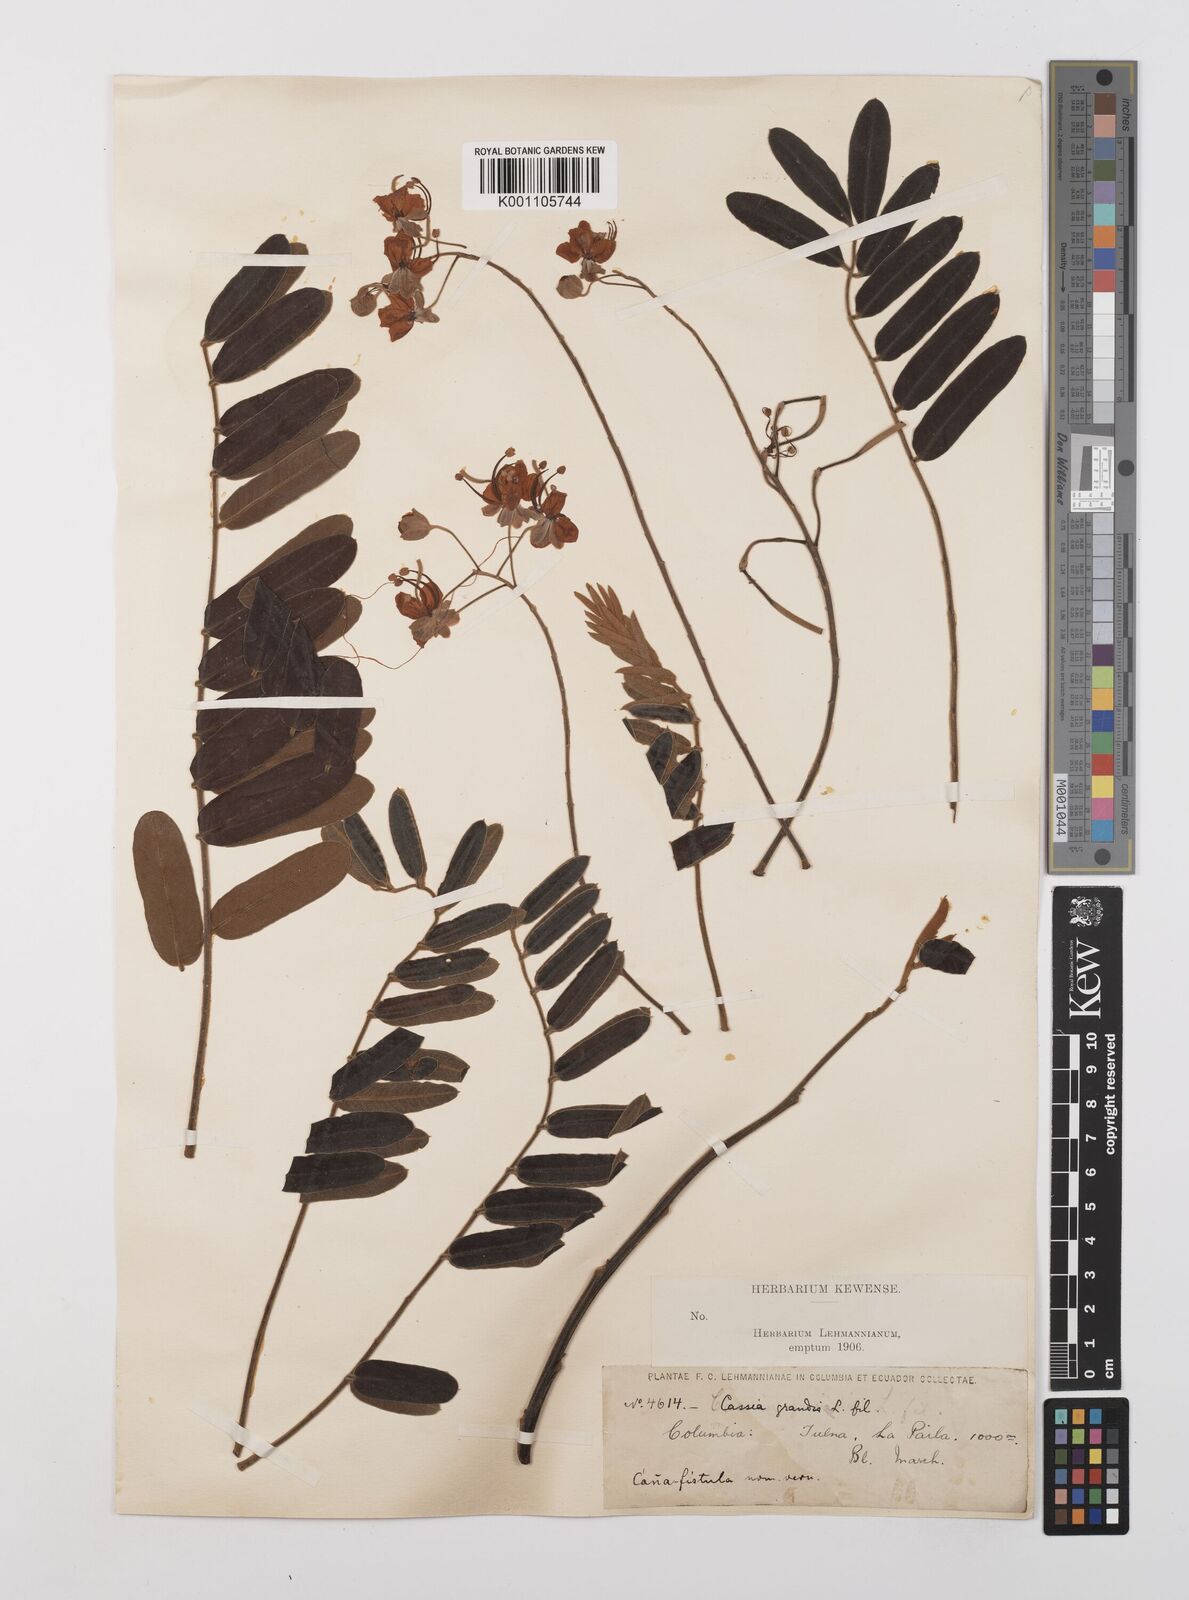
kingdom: Plantae
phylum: Tracheophyta
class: Magnoliopsida
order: Fabales
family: Fabaceae
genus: Cassia
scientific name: Cassia grandis
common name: Appleblossom cassia
